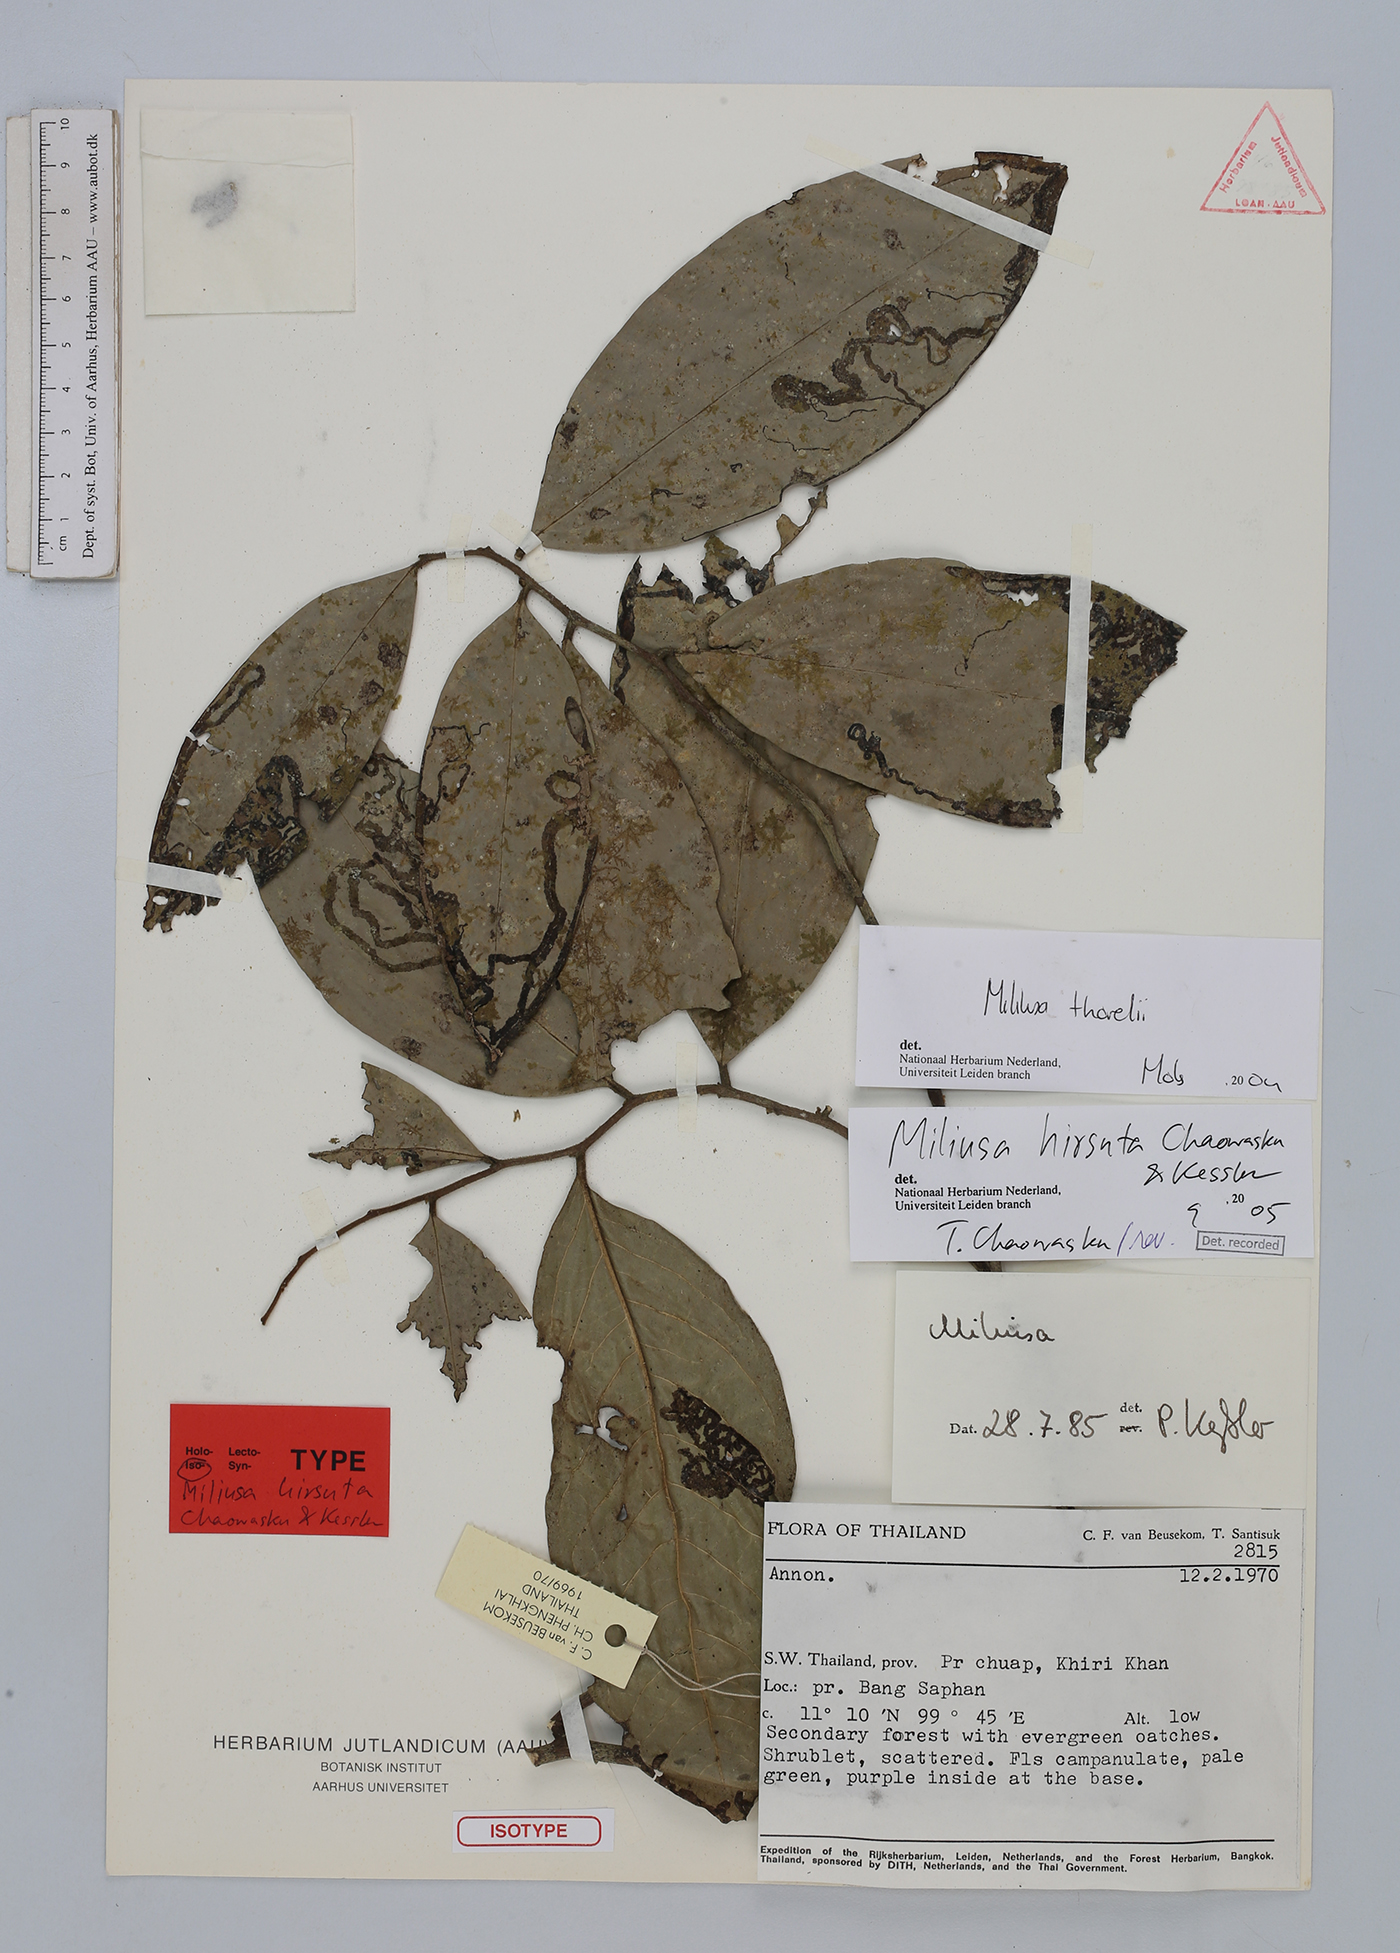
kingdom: Plantae
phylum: Tracheophyta
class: Magnoliopsida
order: Magnoliales
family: Annonaceae
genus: Miliusa
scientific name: Miliusa hirsuta
